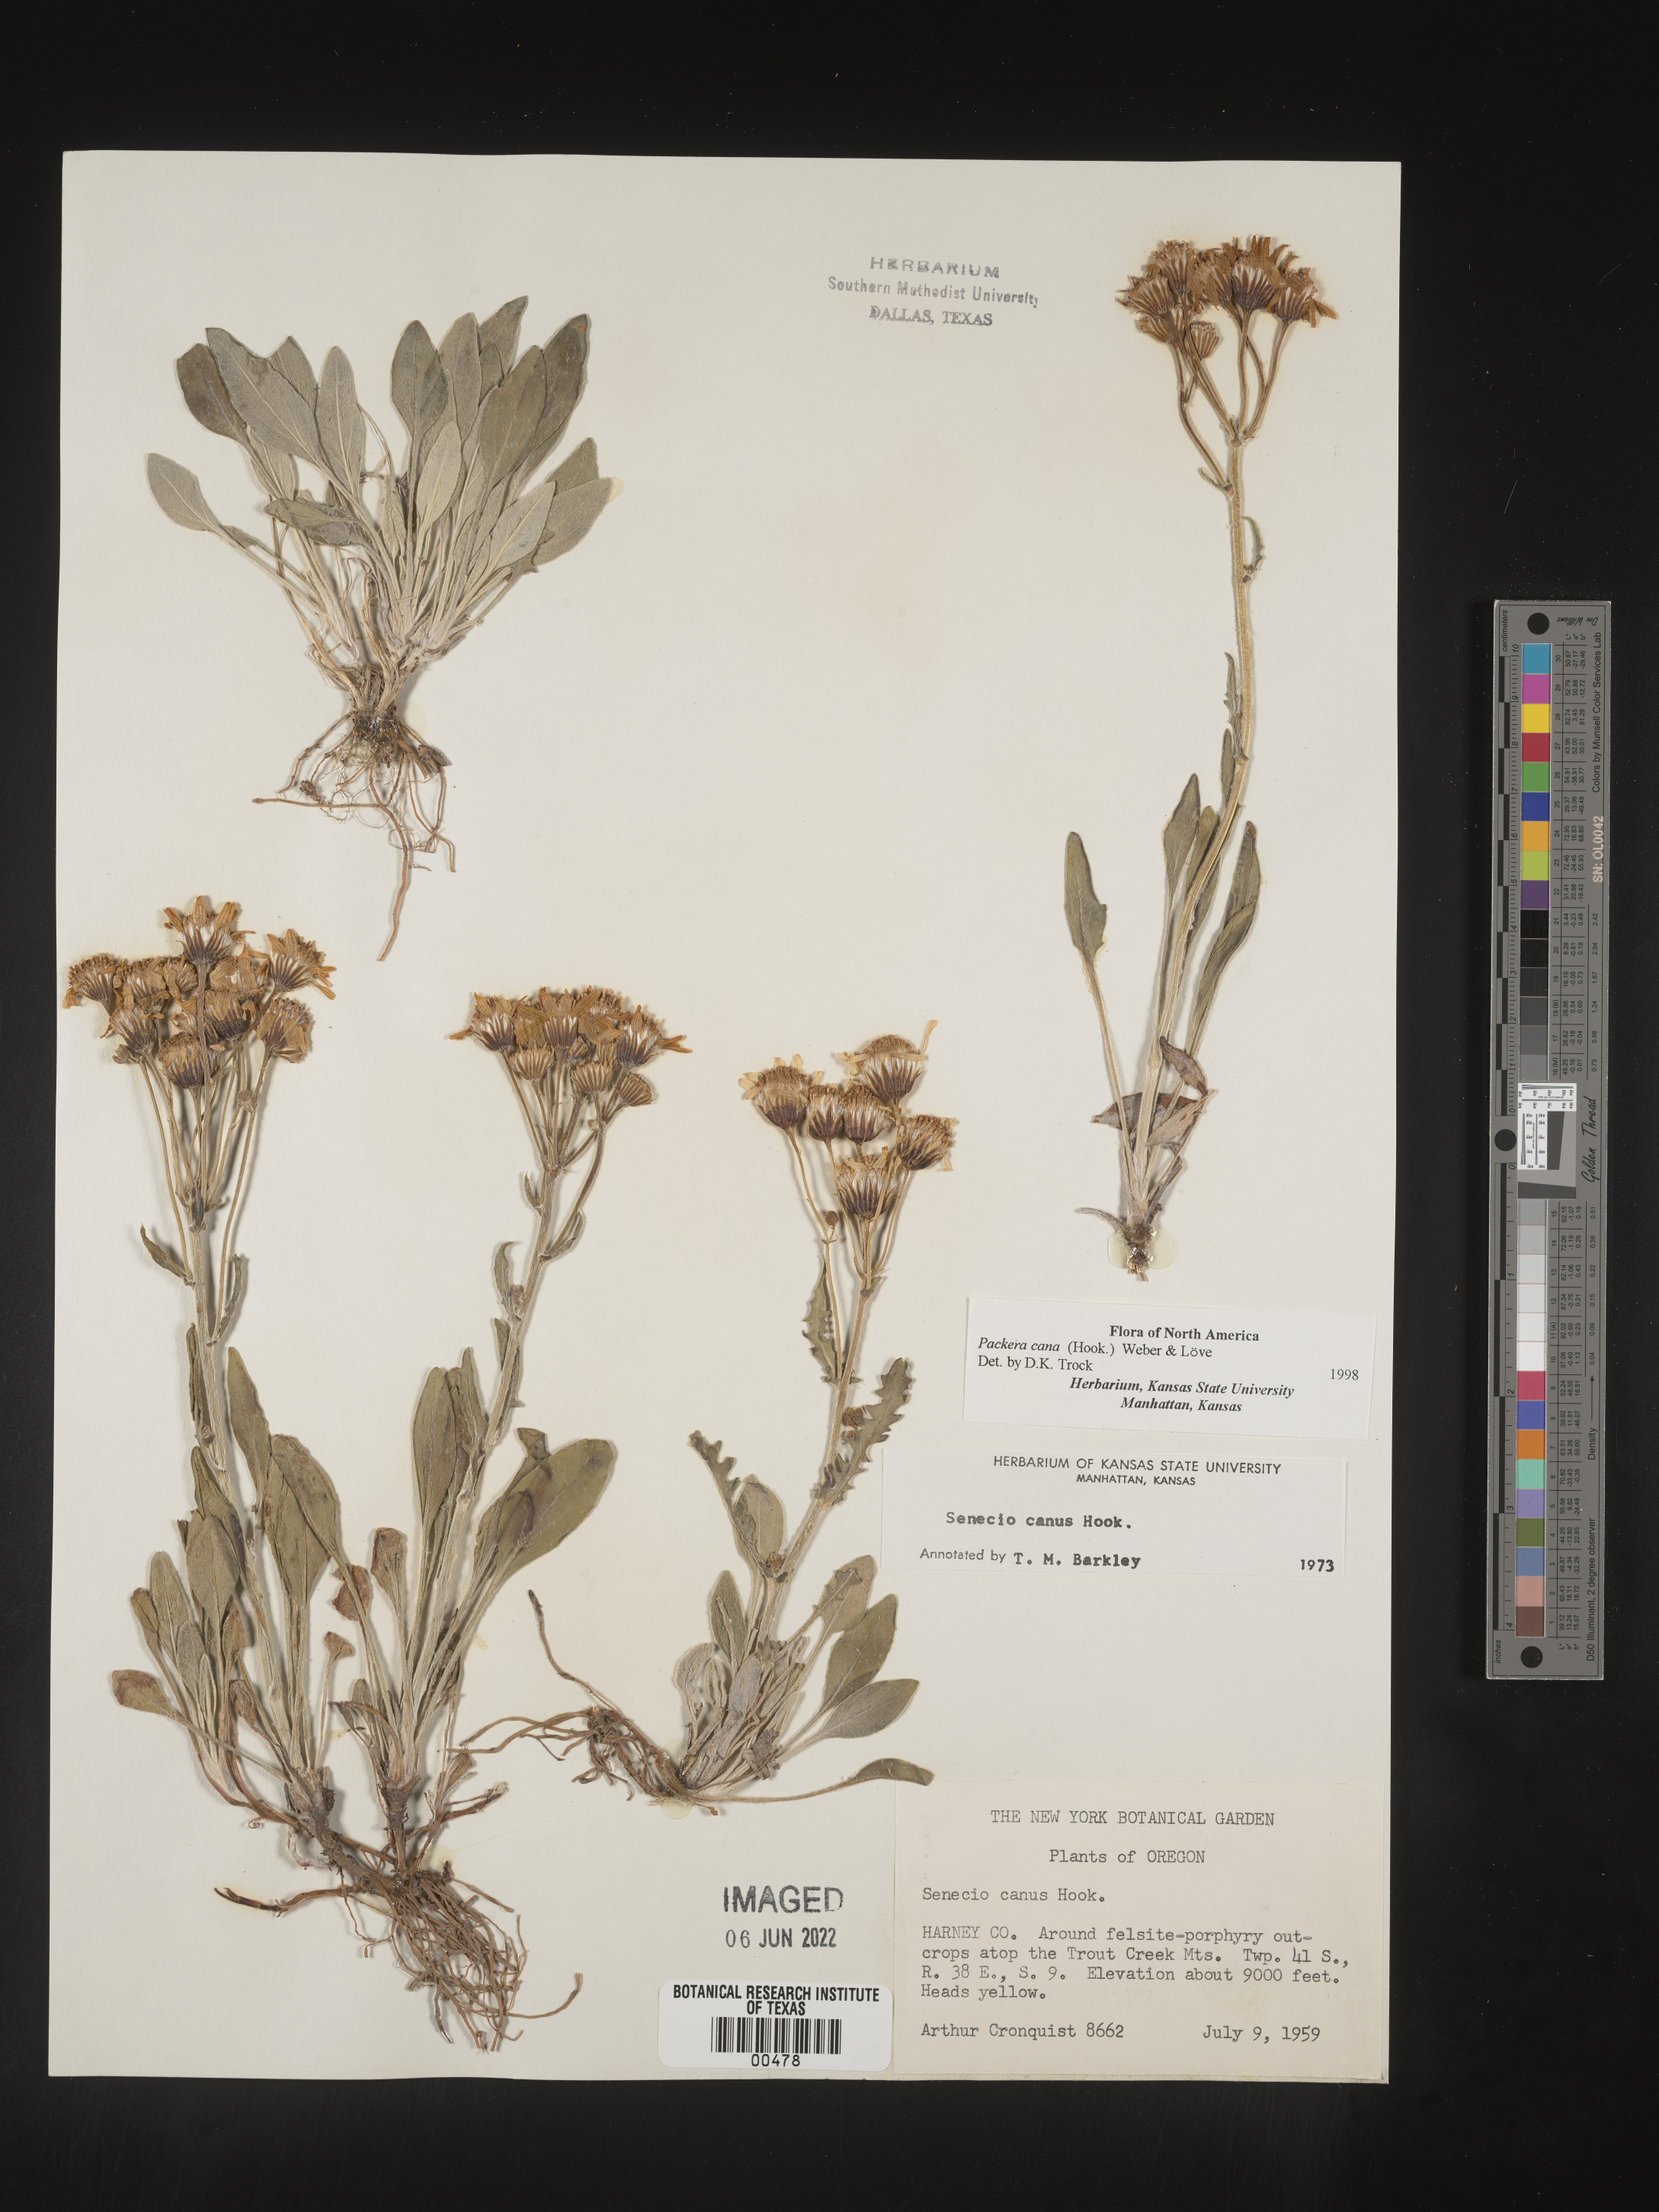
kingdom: Plantae
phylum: Tracheophyta
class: Magnoliopsida
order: Asterales
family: Asteraceae
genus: Packera
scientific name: Packera cana
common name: Woolly groundsel
